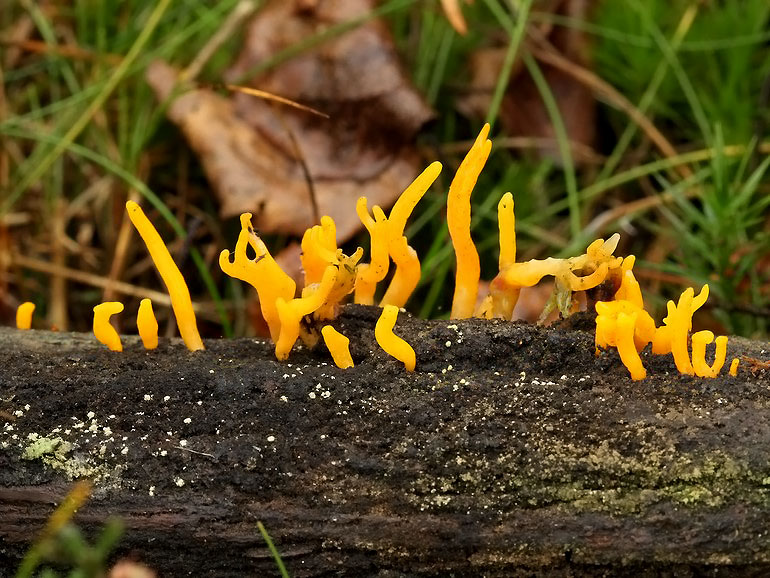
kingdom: Fungi
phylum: Basidiomycota
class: Dacrymycetes
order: Dacrymycetales
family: Dacrymycetaceae
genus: Calocera
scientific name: Calocera furcata
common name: fyrre-guldgaffel
